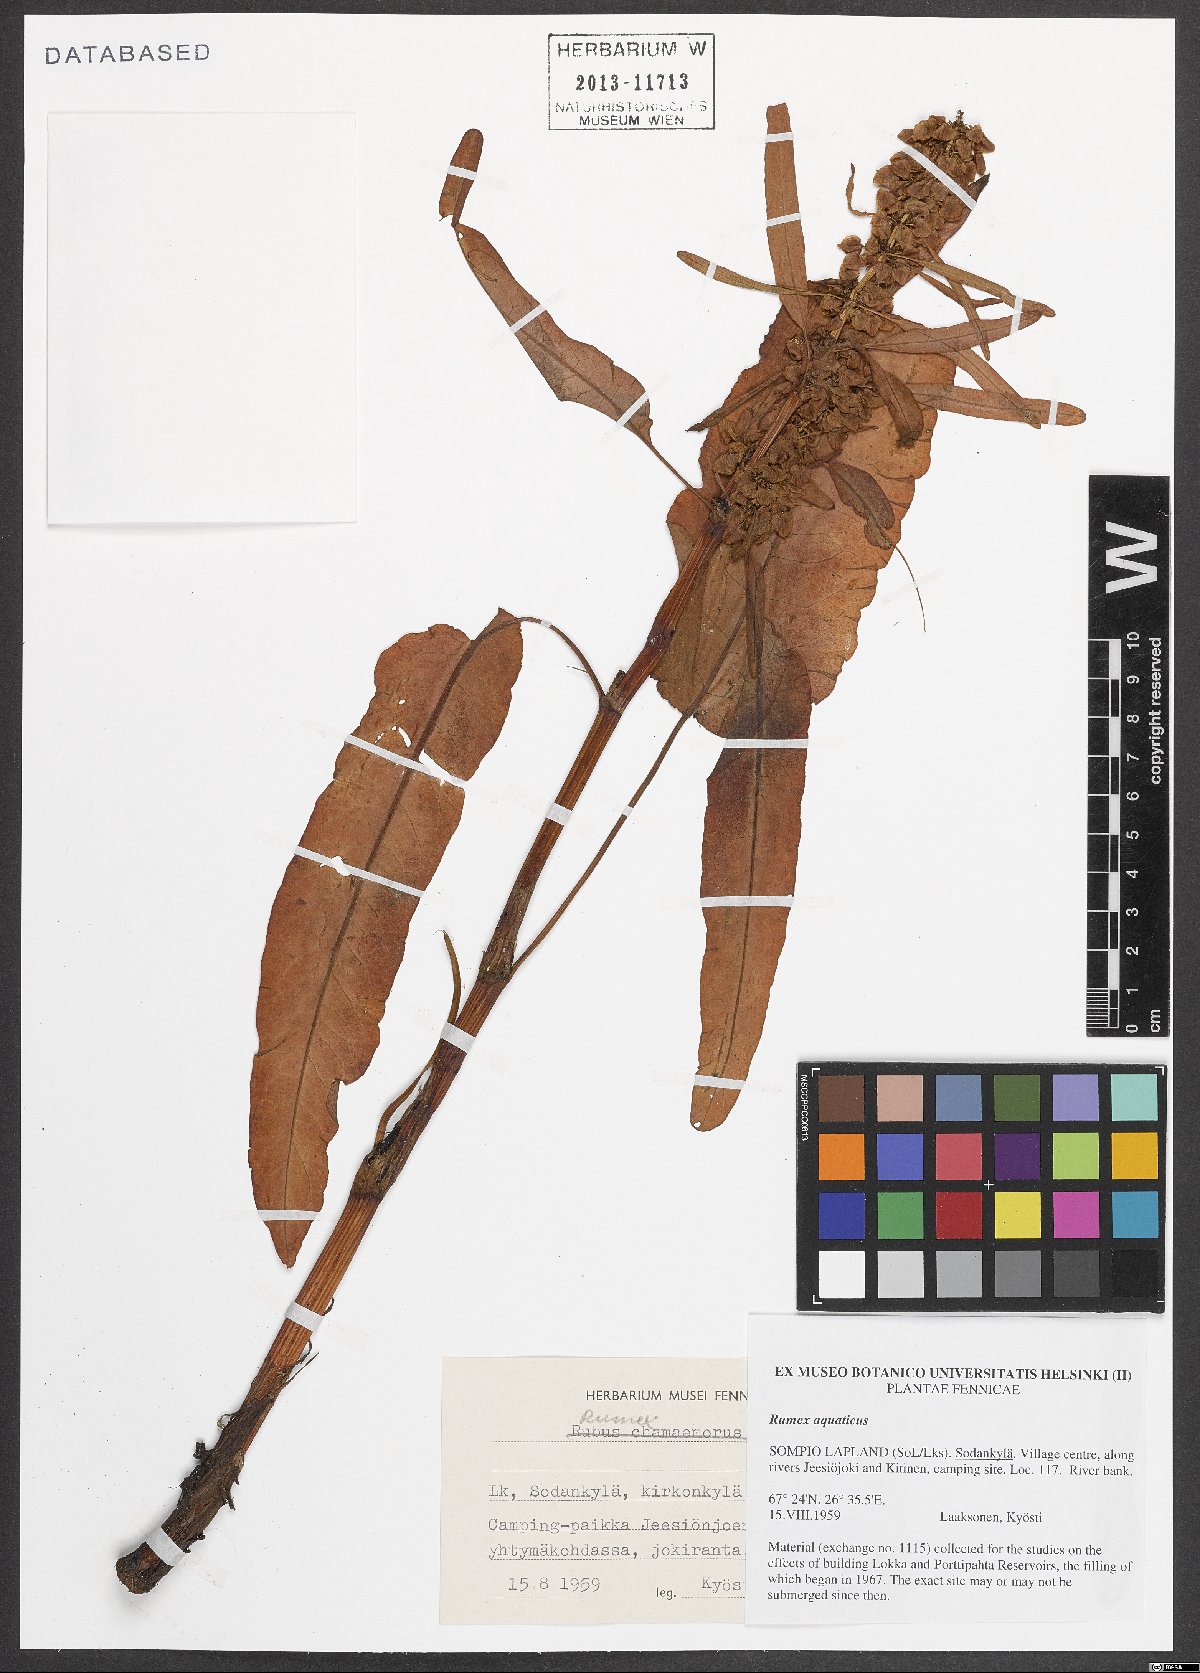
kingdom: Plantae
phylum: Tracheophyta
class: Magnoliopsida
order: Caryophyllales
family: Polygonaceae
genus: Rumex
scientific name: Rumex aquaticus
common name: Scottish dock
